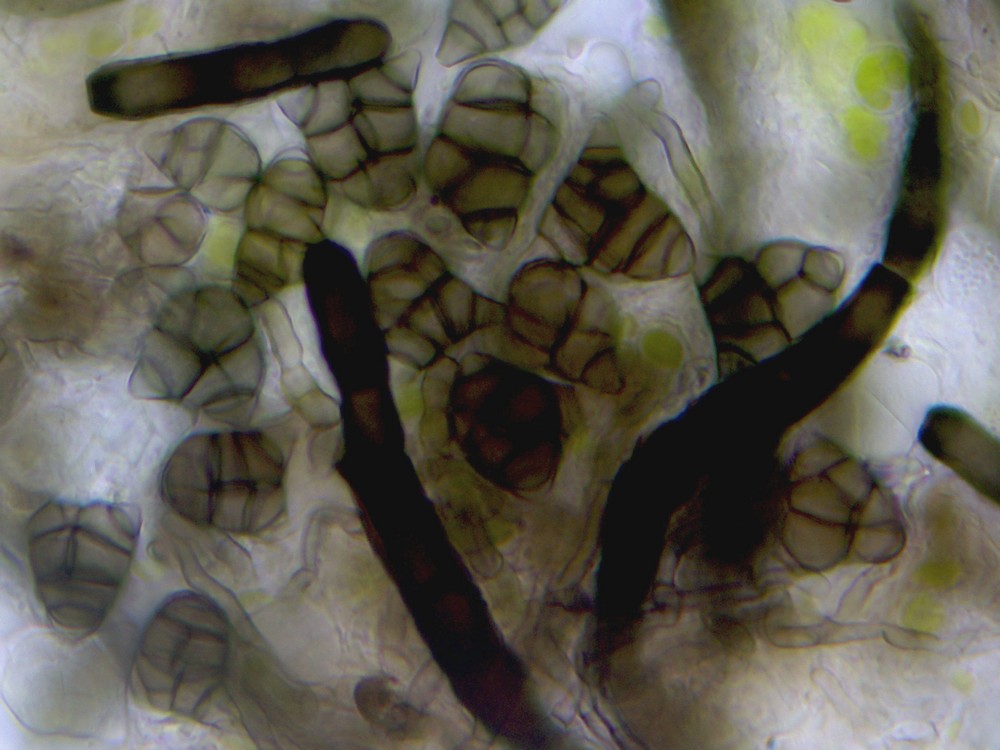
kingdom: Fungi
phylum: Ascomycota
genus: Oncopodiella
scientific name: Oncopodiella trigonella
